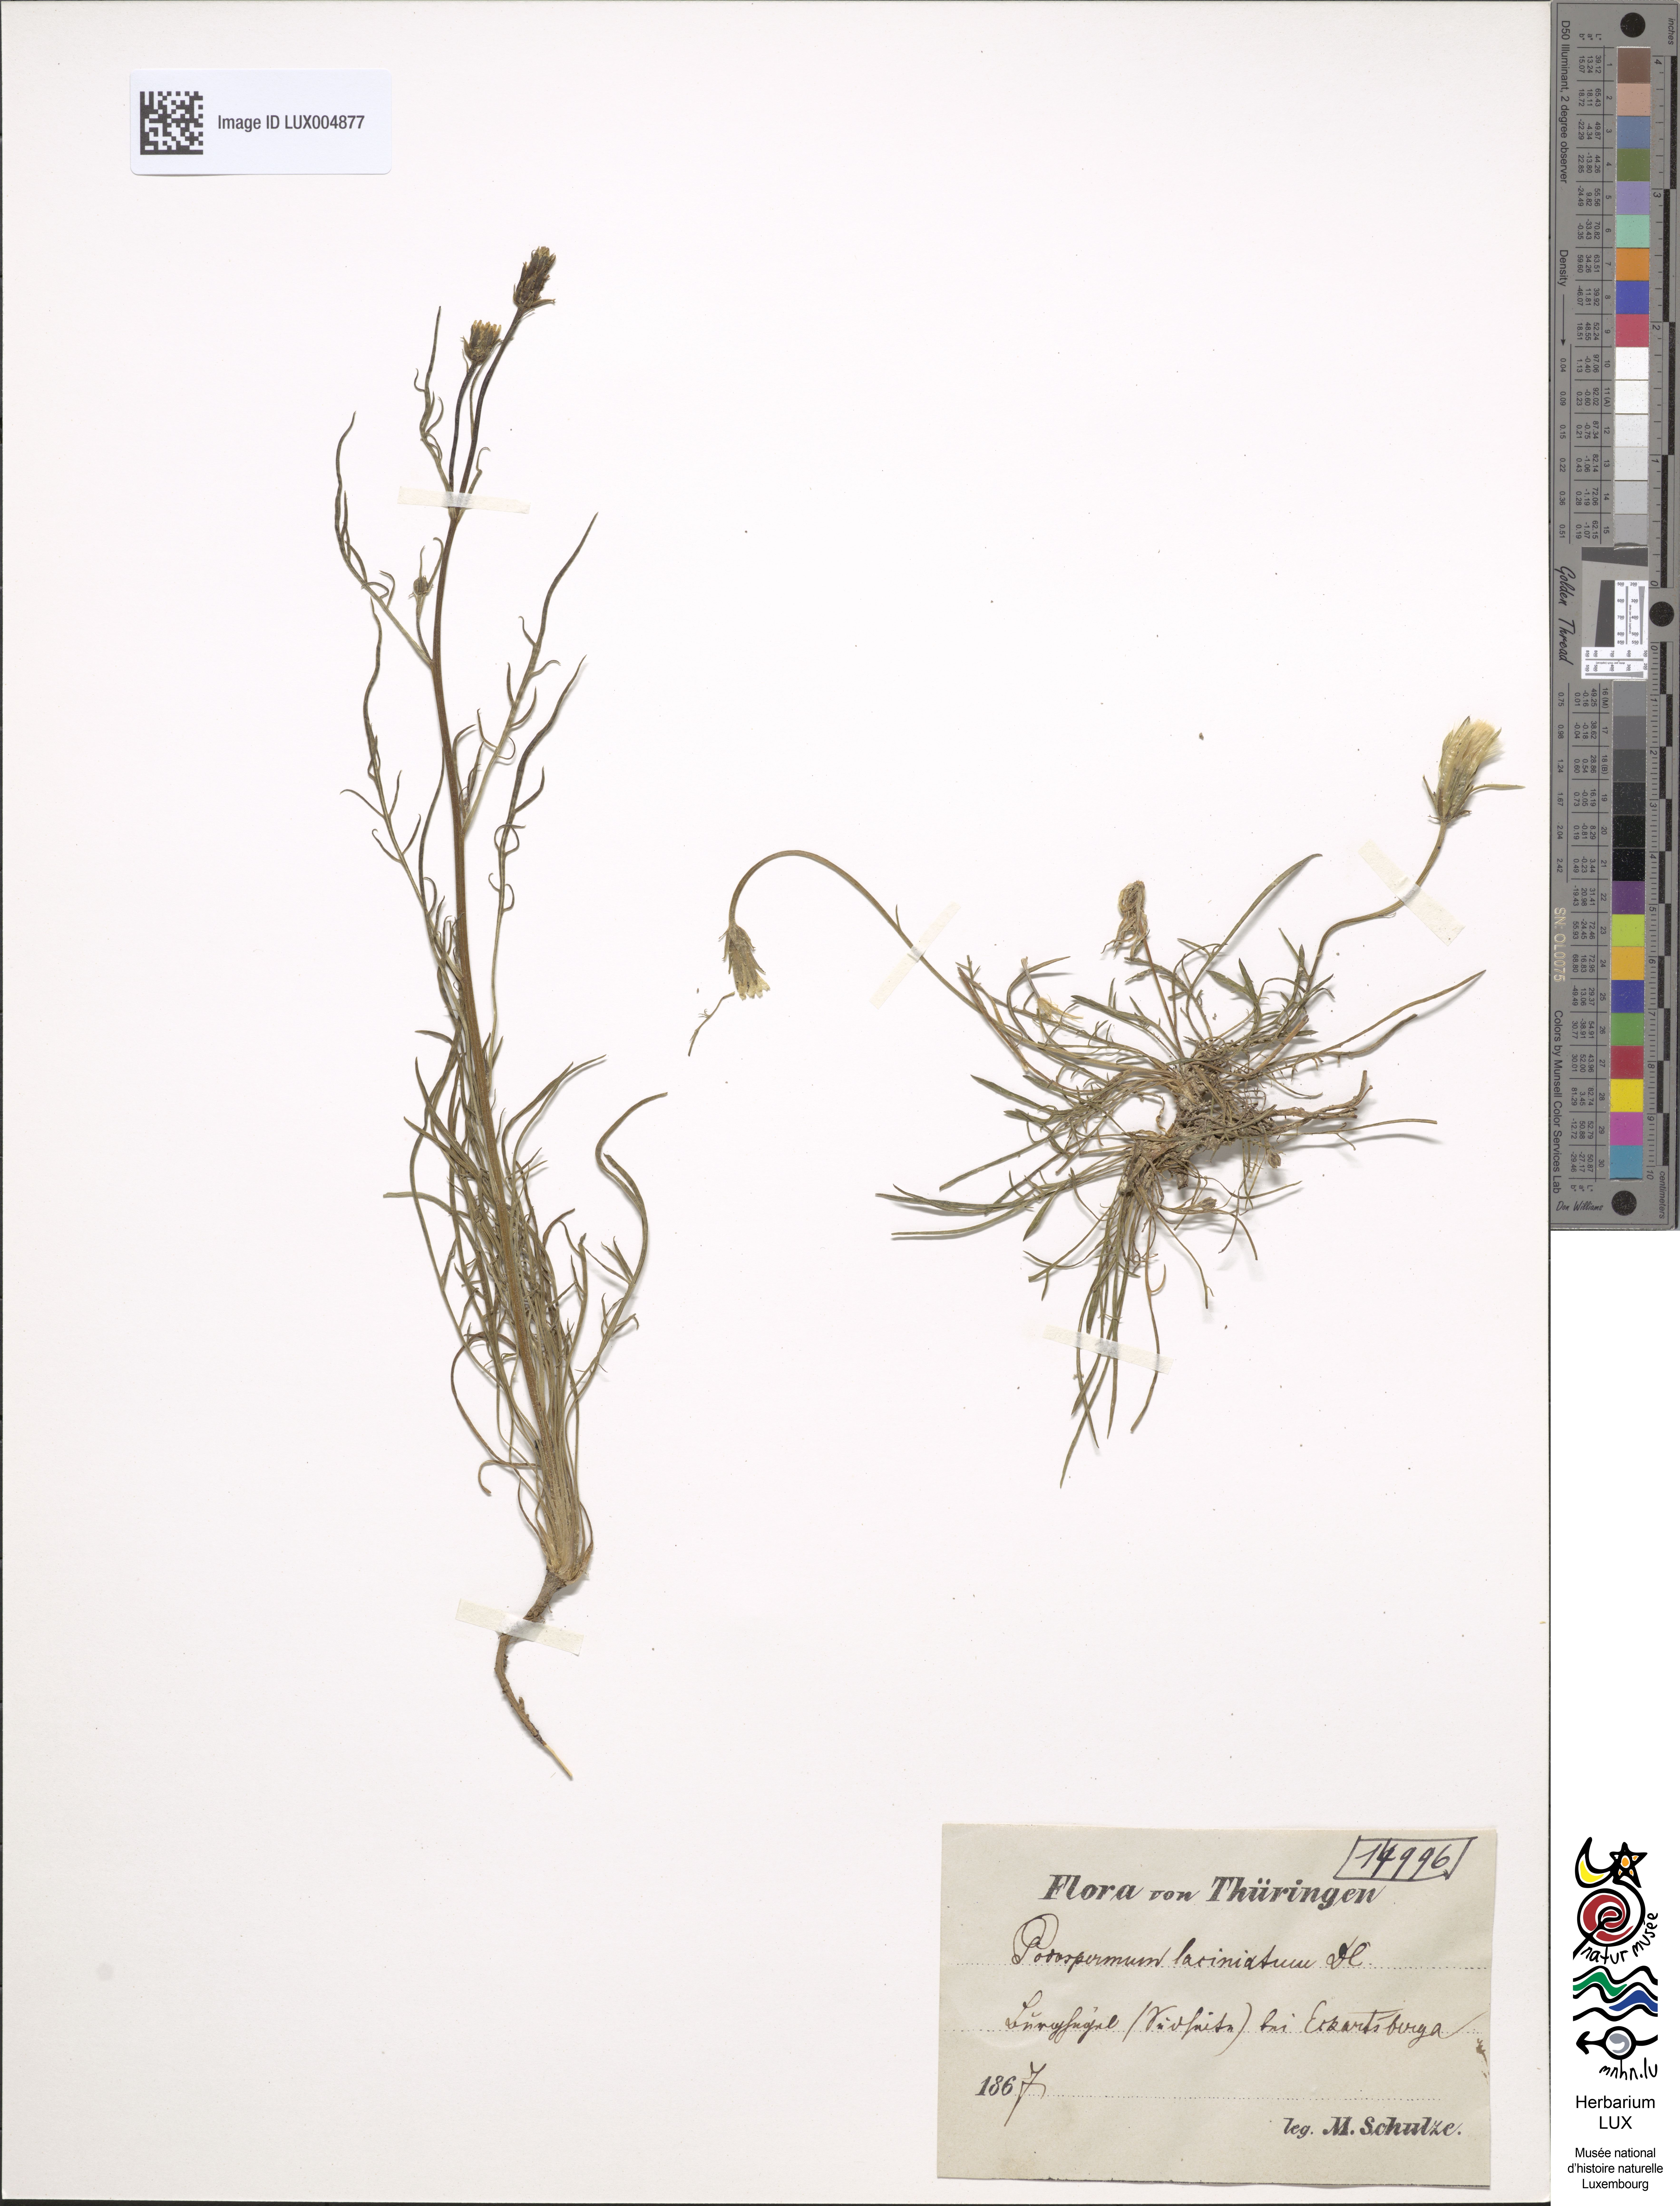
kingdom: Plantae
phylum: Tracheophyta
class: Magnoliopsida
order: Asterales
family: Asteraceae
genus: Scorzonera
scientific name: Scorzonera laciniata
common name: Cutleaf vipergrass
